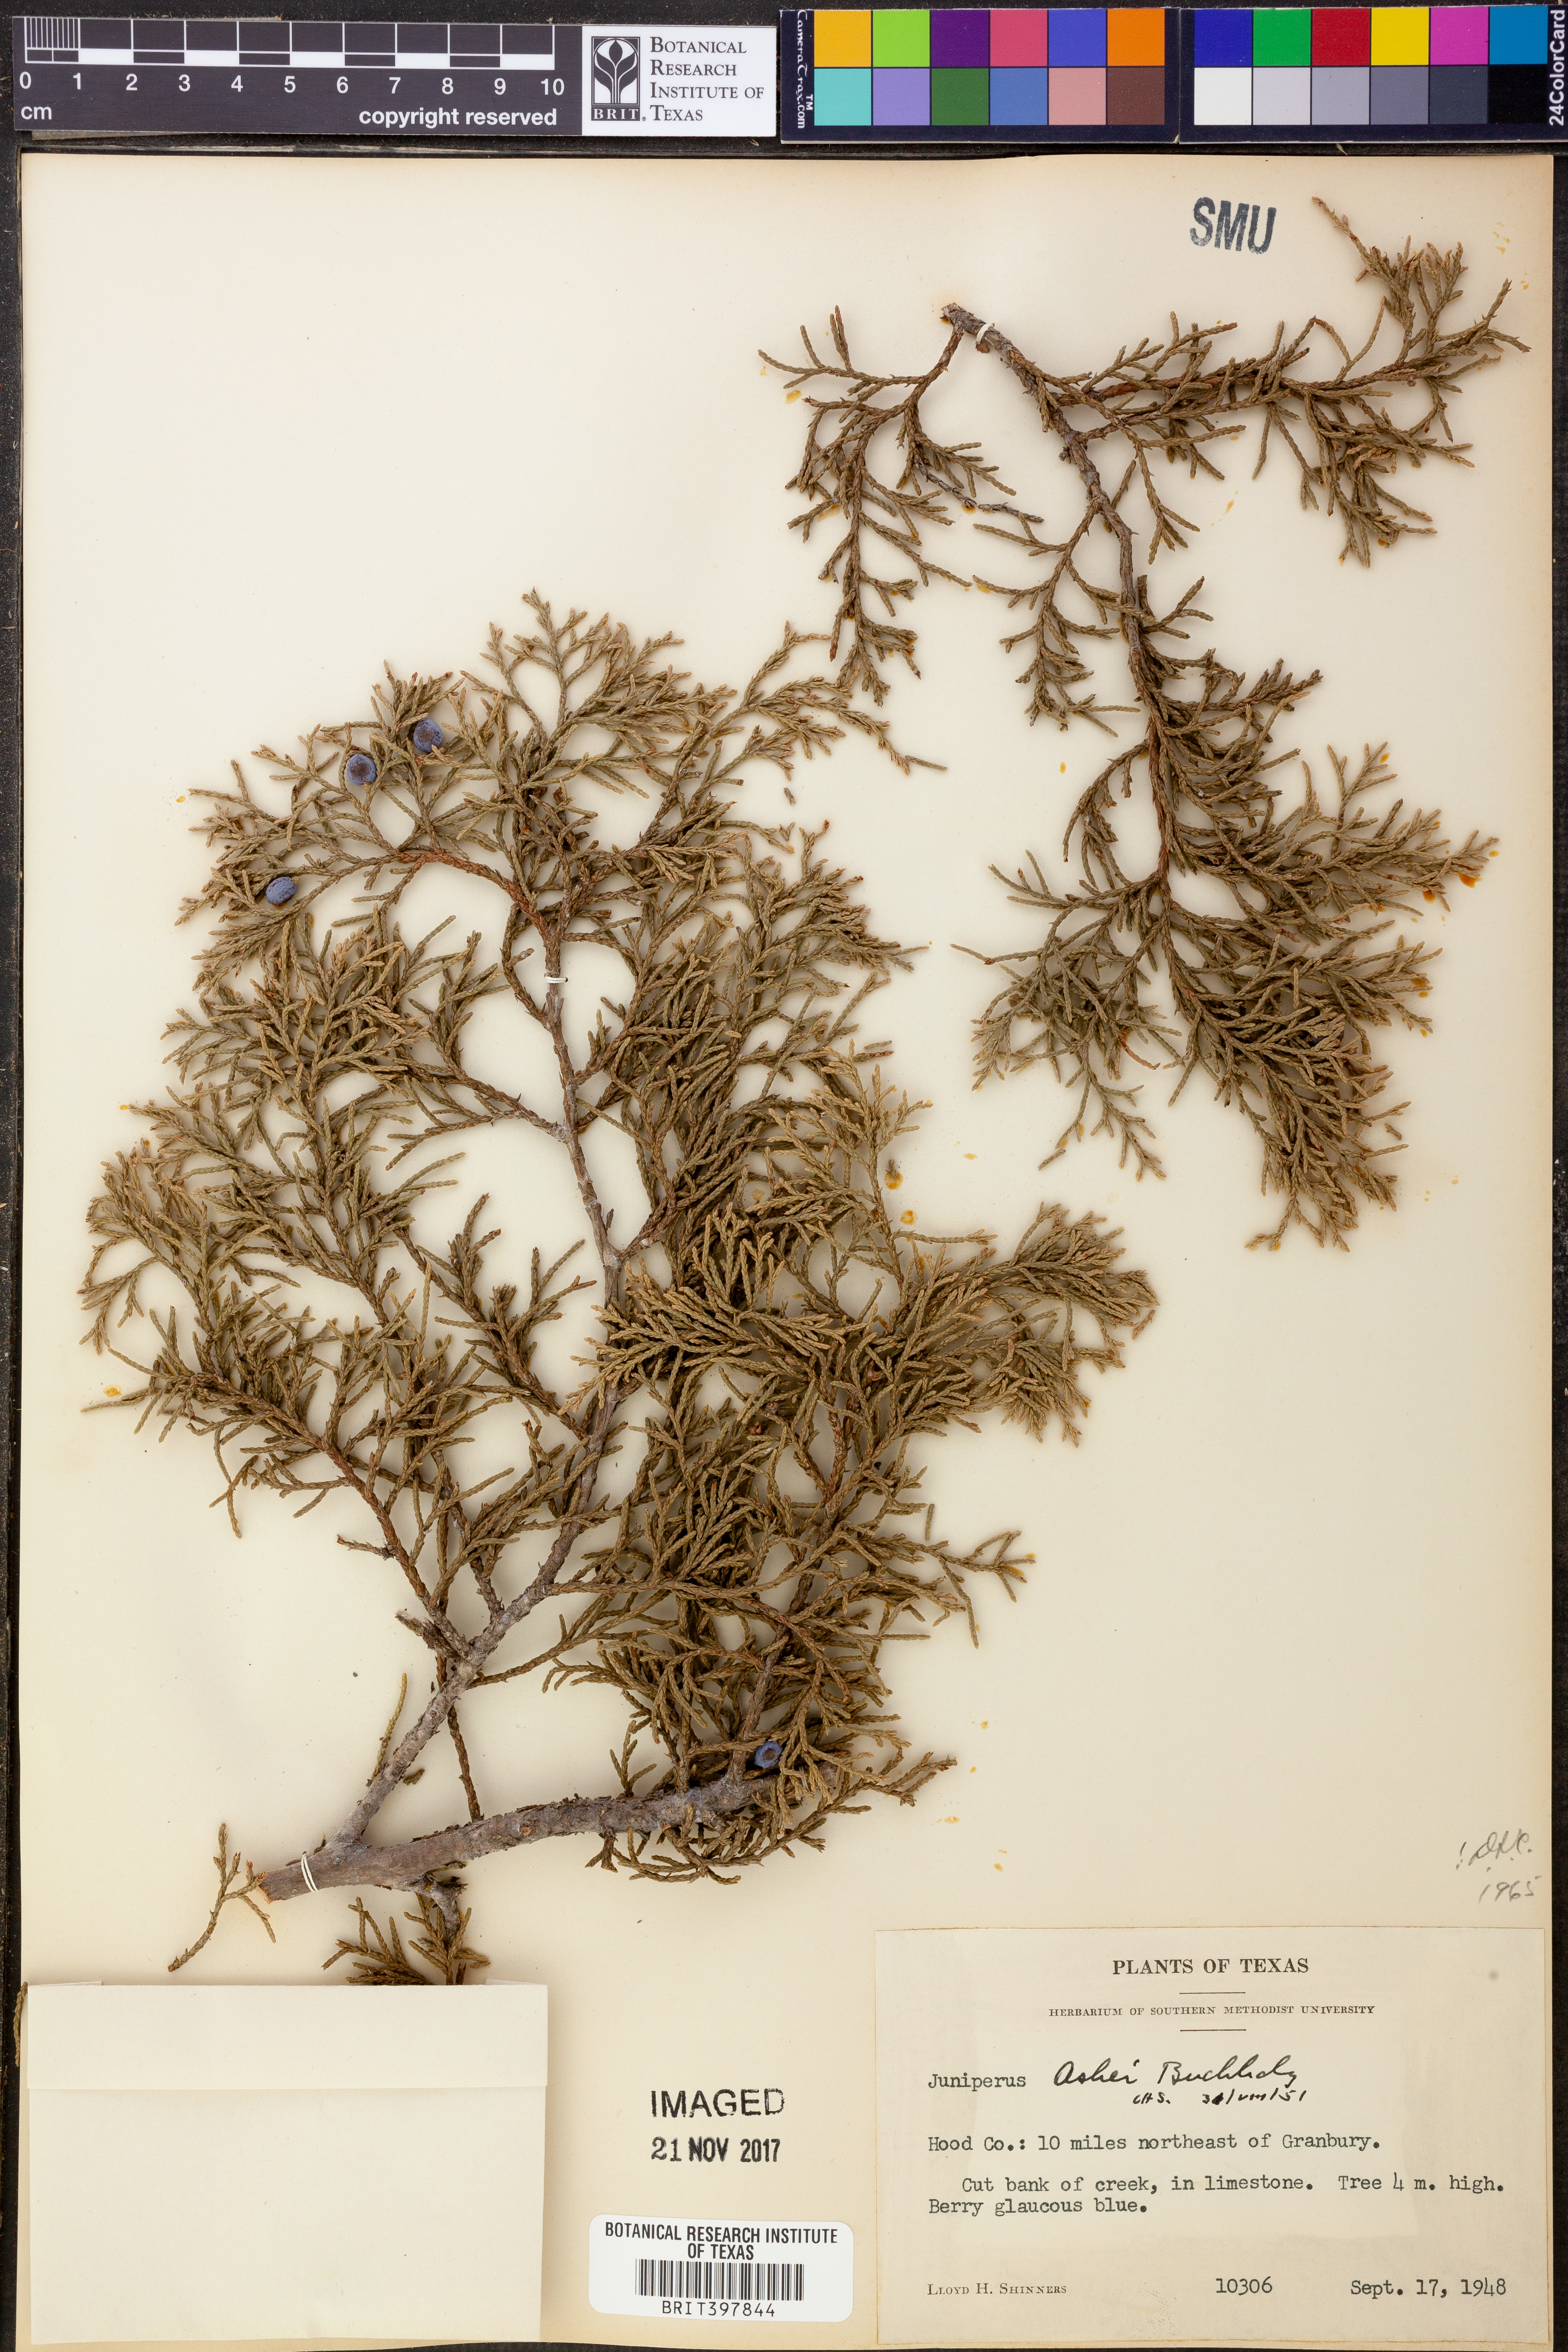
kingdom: Plantae
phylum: Tracheophyta
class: Pinopsida
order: Pinales
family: Cupressaceae
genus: Juniperus
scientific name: Juniperus ashei
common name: Mexican juniper
